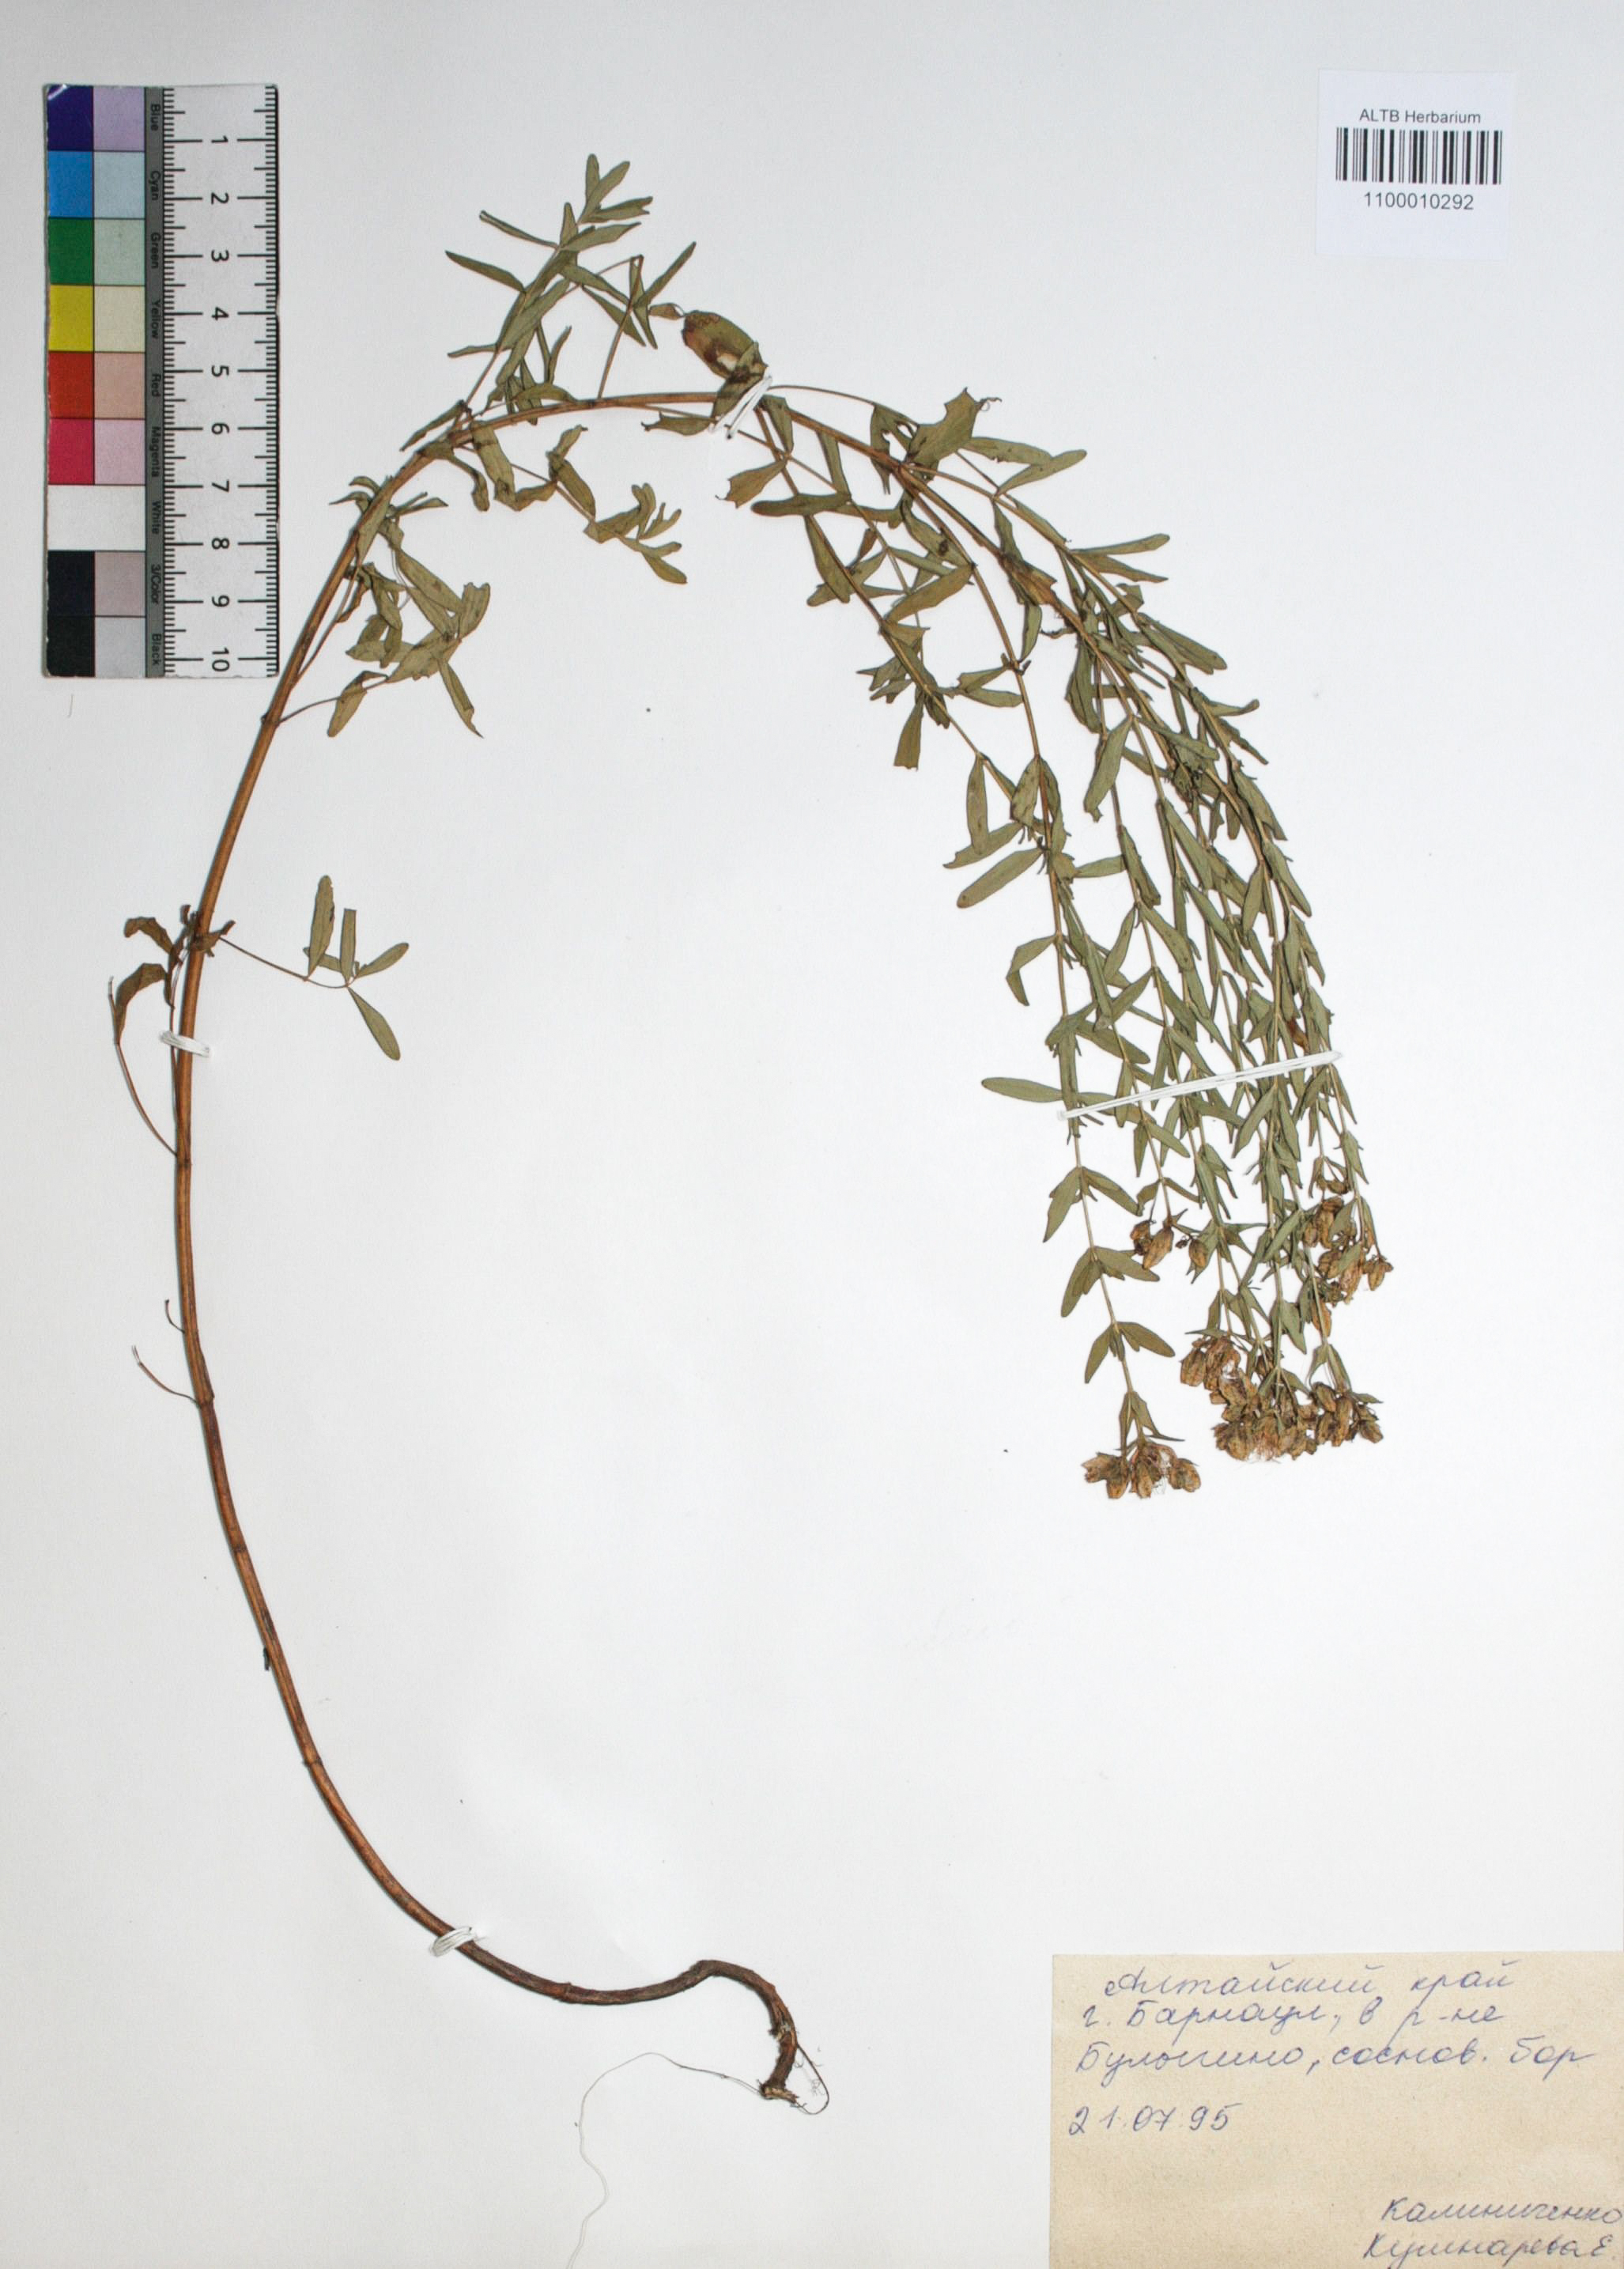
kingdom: Plantae
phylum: Tracheophyta
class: Magnoliopsida
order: Malpighiales
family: Hypericaceae
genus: Hypericum
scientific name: Hypericum ascyron
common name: Giant st. john's-wort
